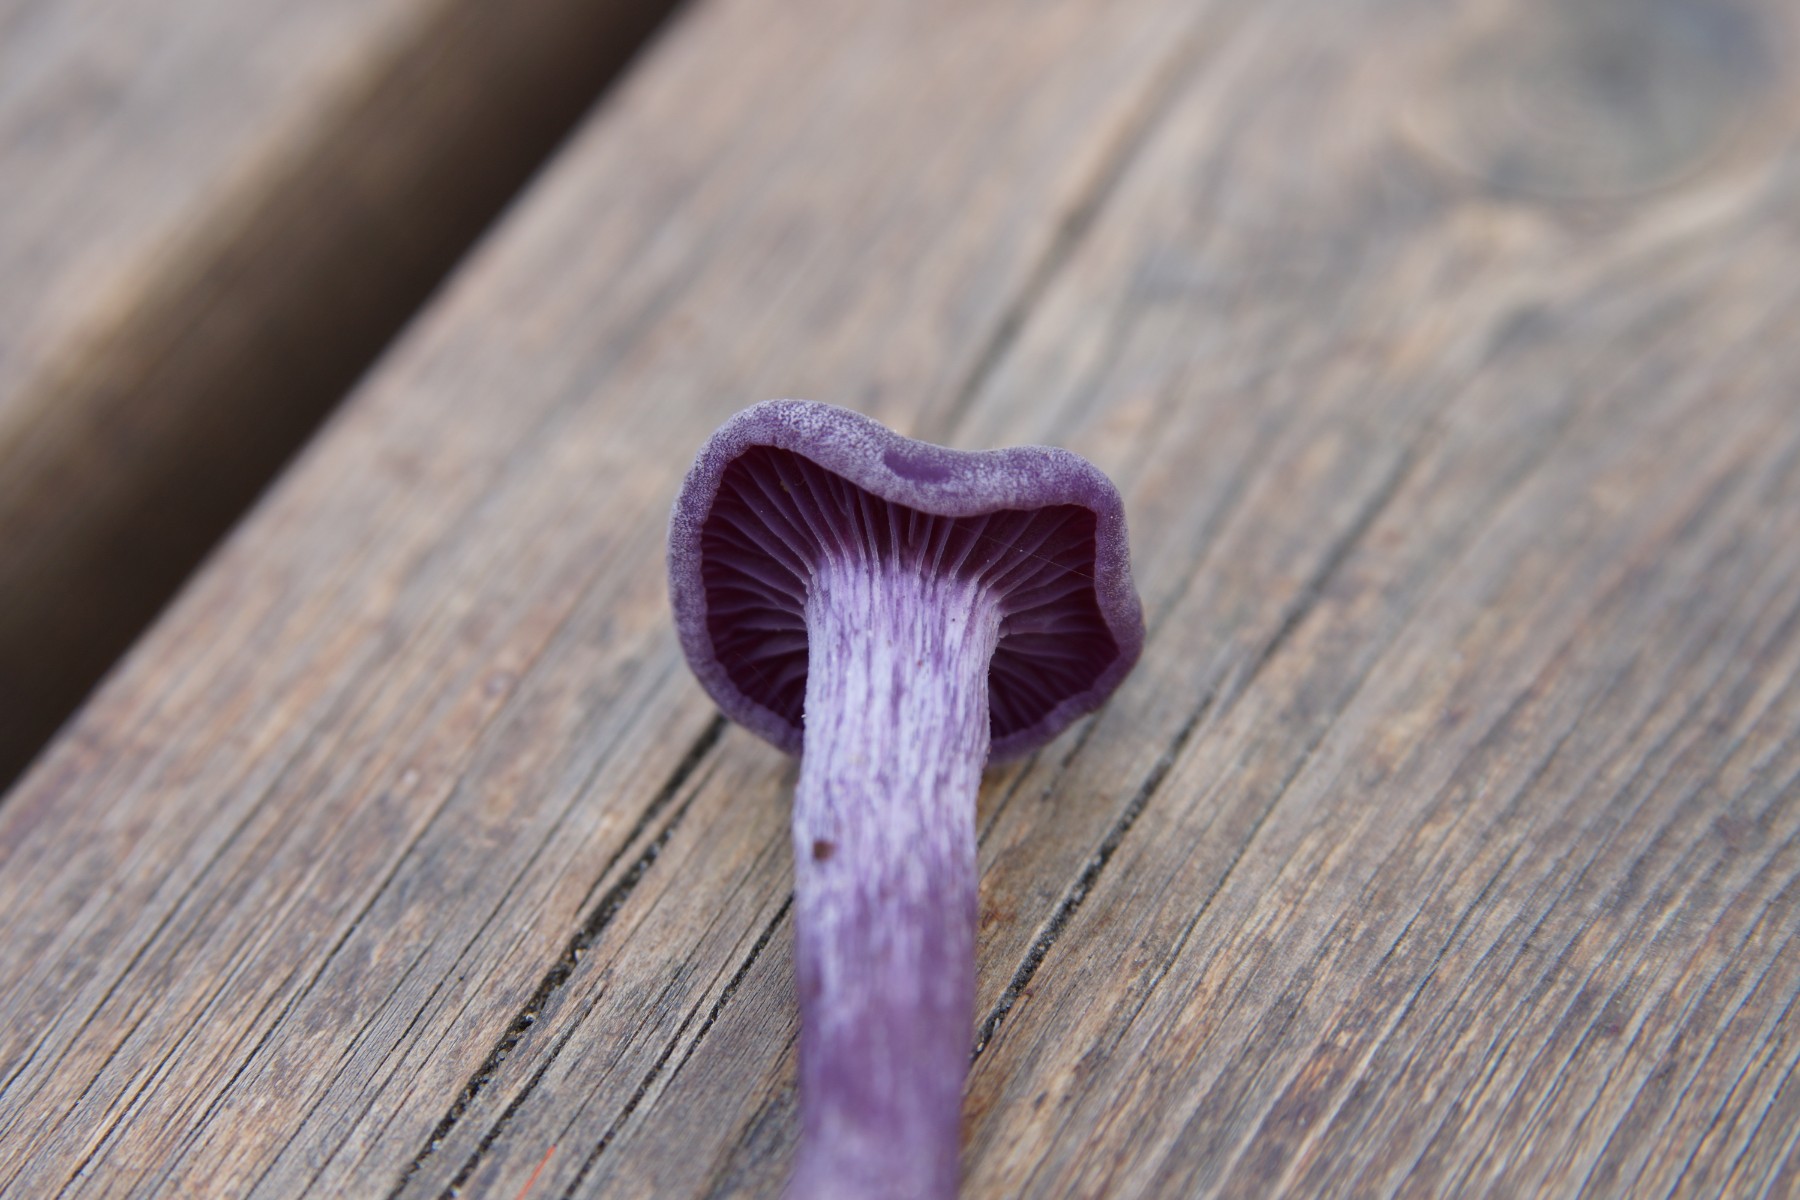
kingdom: Fungi
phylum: Basidiomycota
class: Agaricomycetes
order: Agaricales
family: Hydnangiaceae
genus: Laccaria
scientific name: Laccaria amethystina
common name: violet ametysthat
